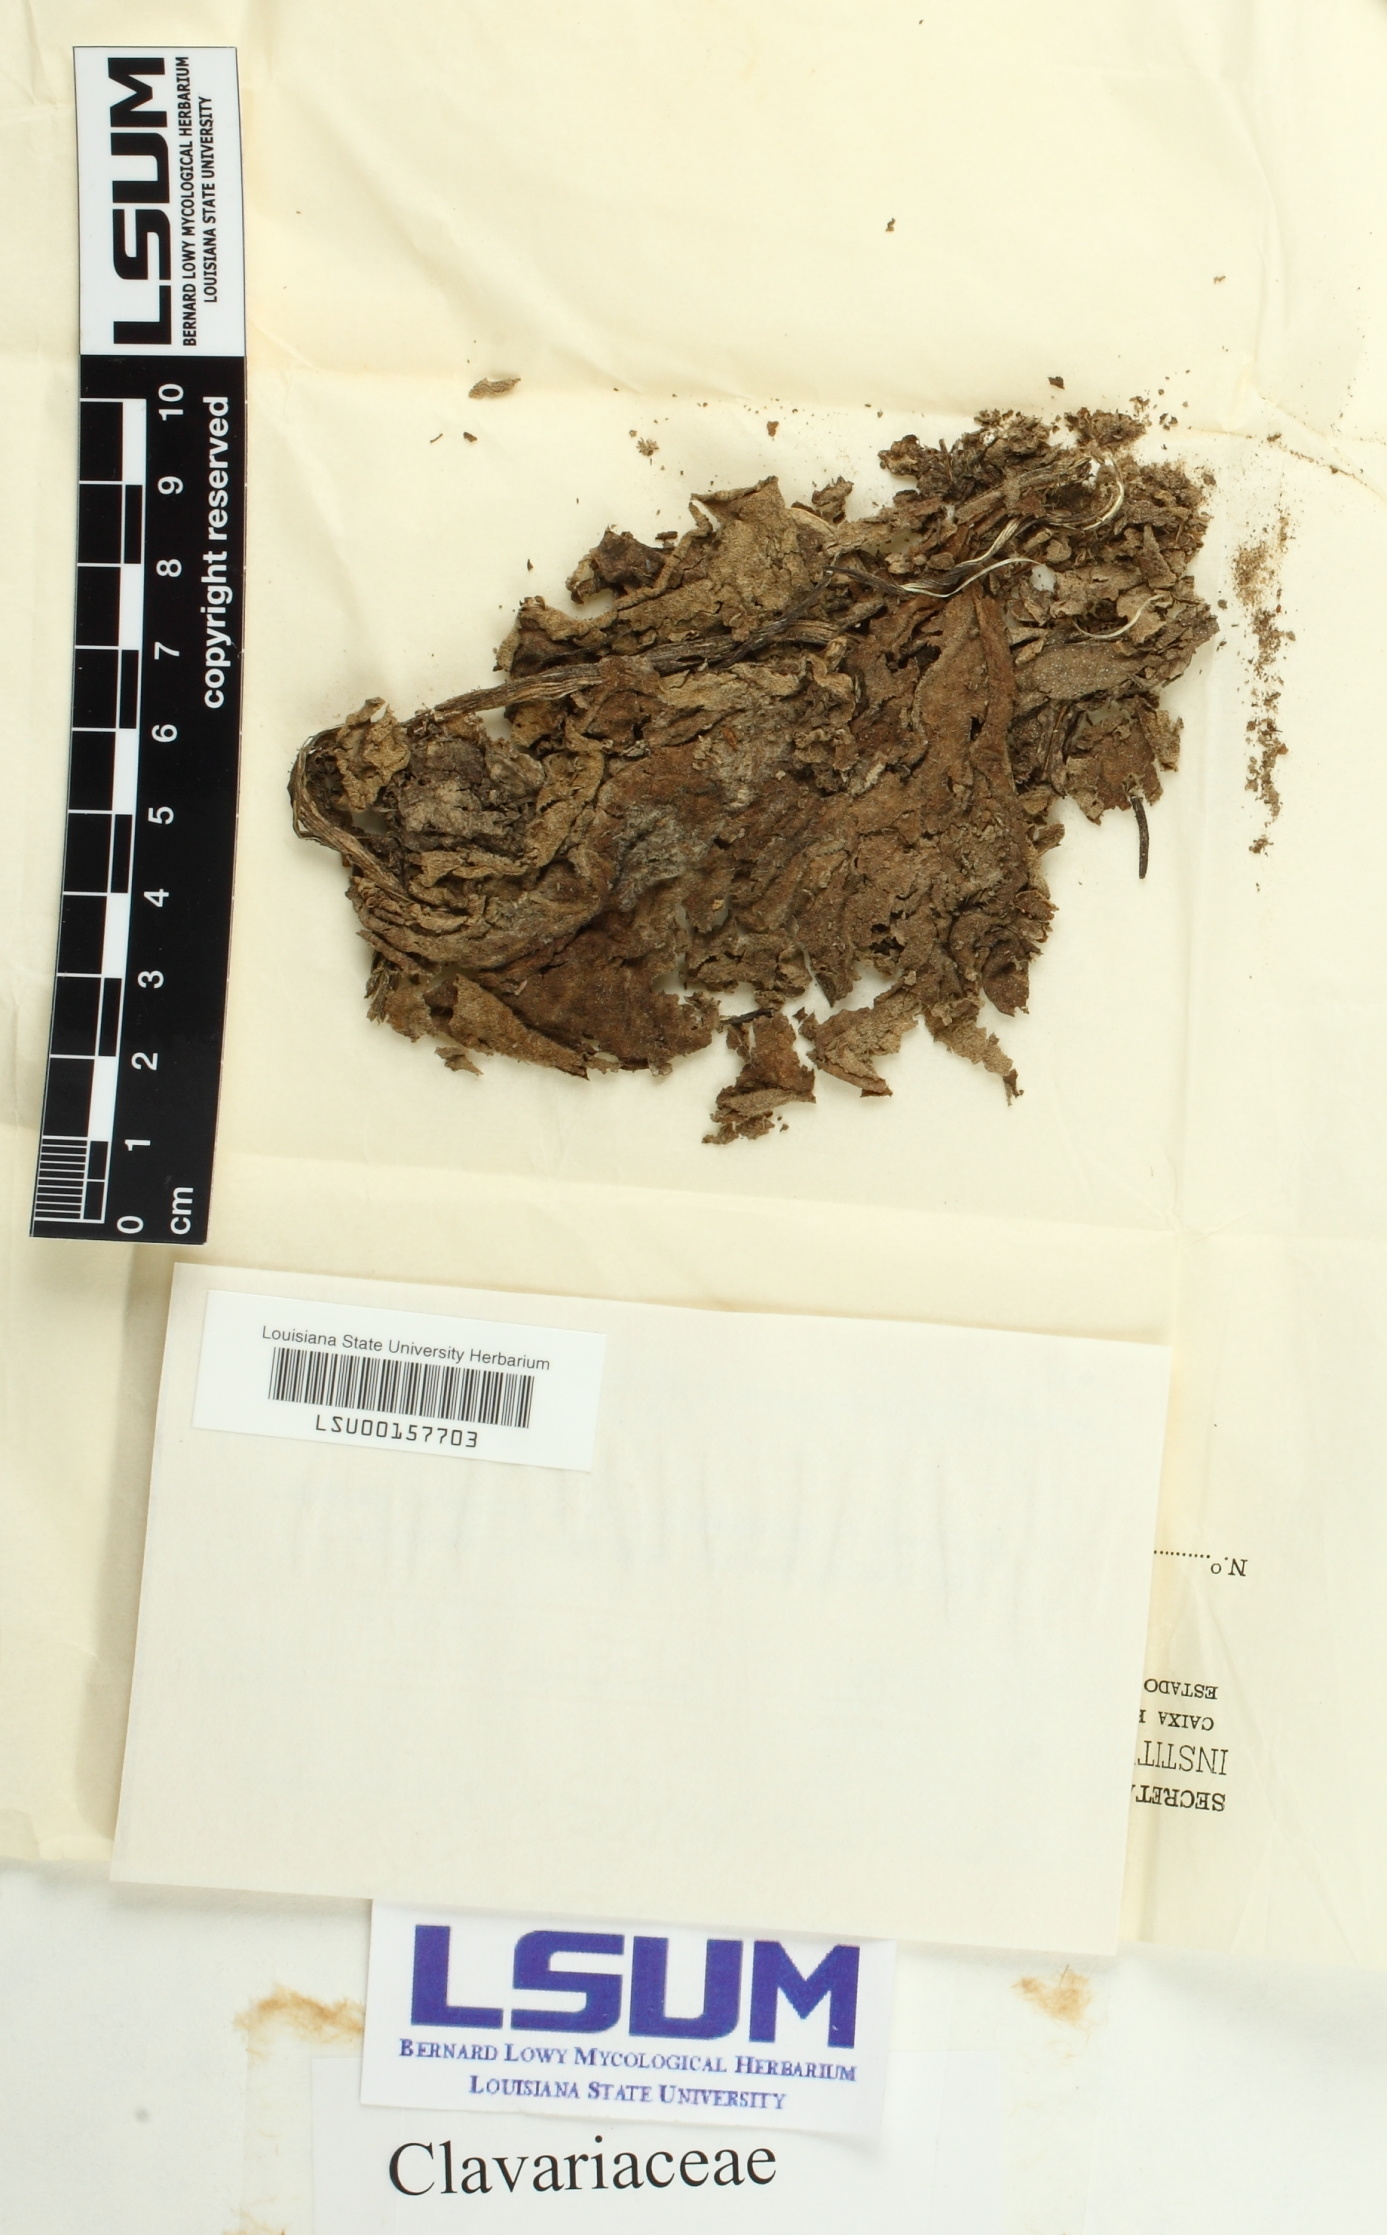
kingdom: Fungi
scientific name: Fungi
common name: Fungi
